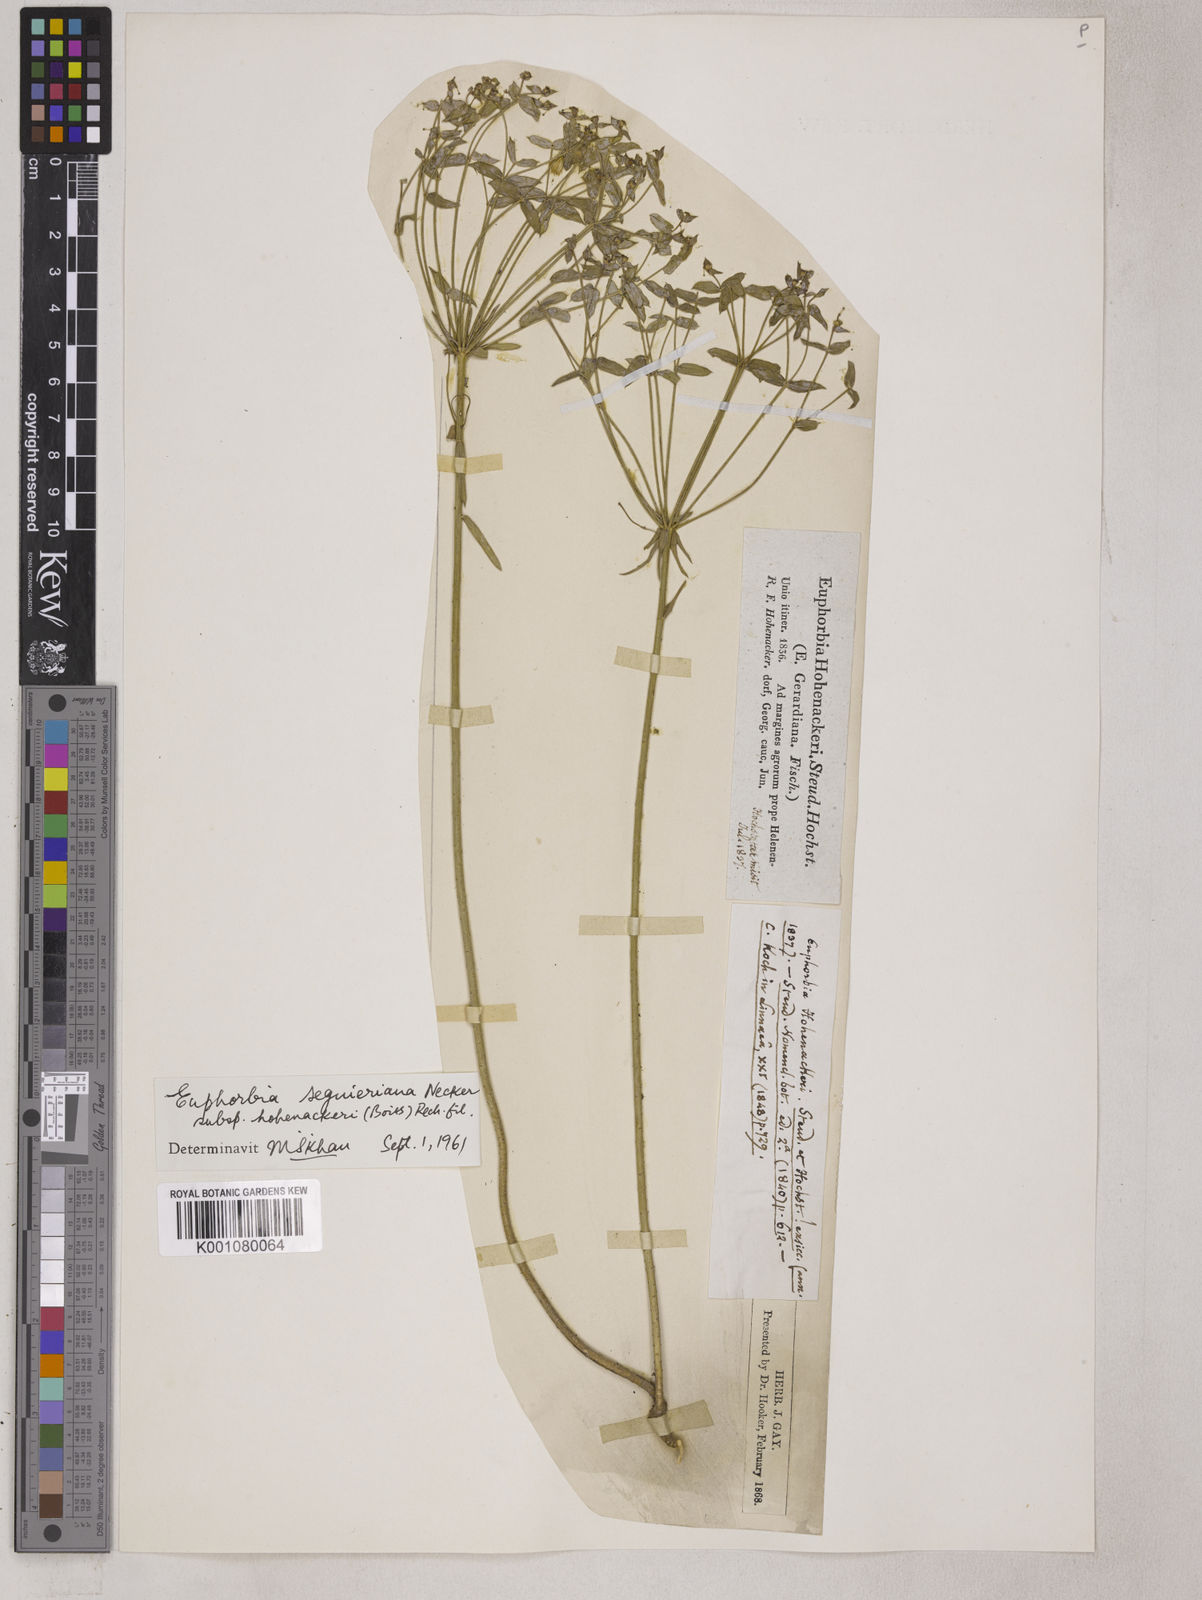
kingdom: Plantae
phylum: Tracheophyta
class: Magnoliopsida
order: Malpighiales
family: Euphorbiaceae
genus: Euphorbia
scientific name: Euphorbia seguieriana
